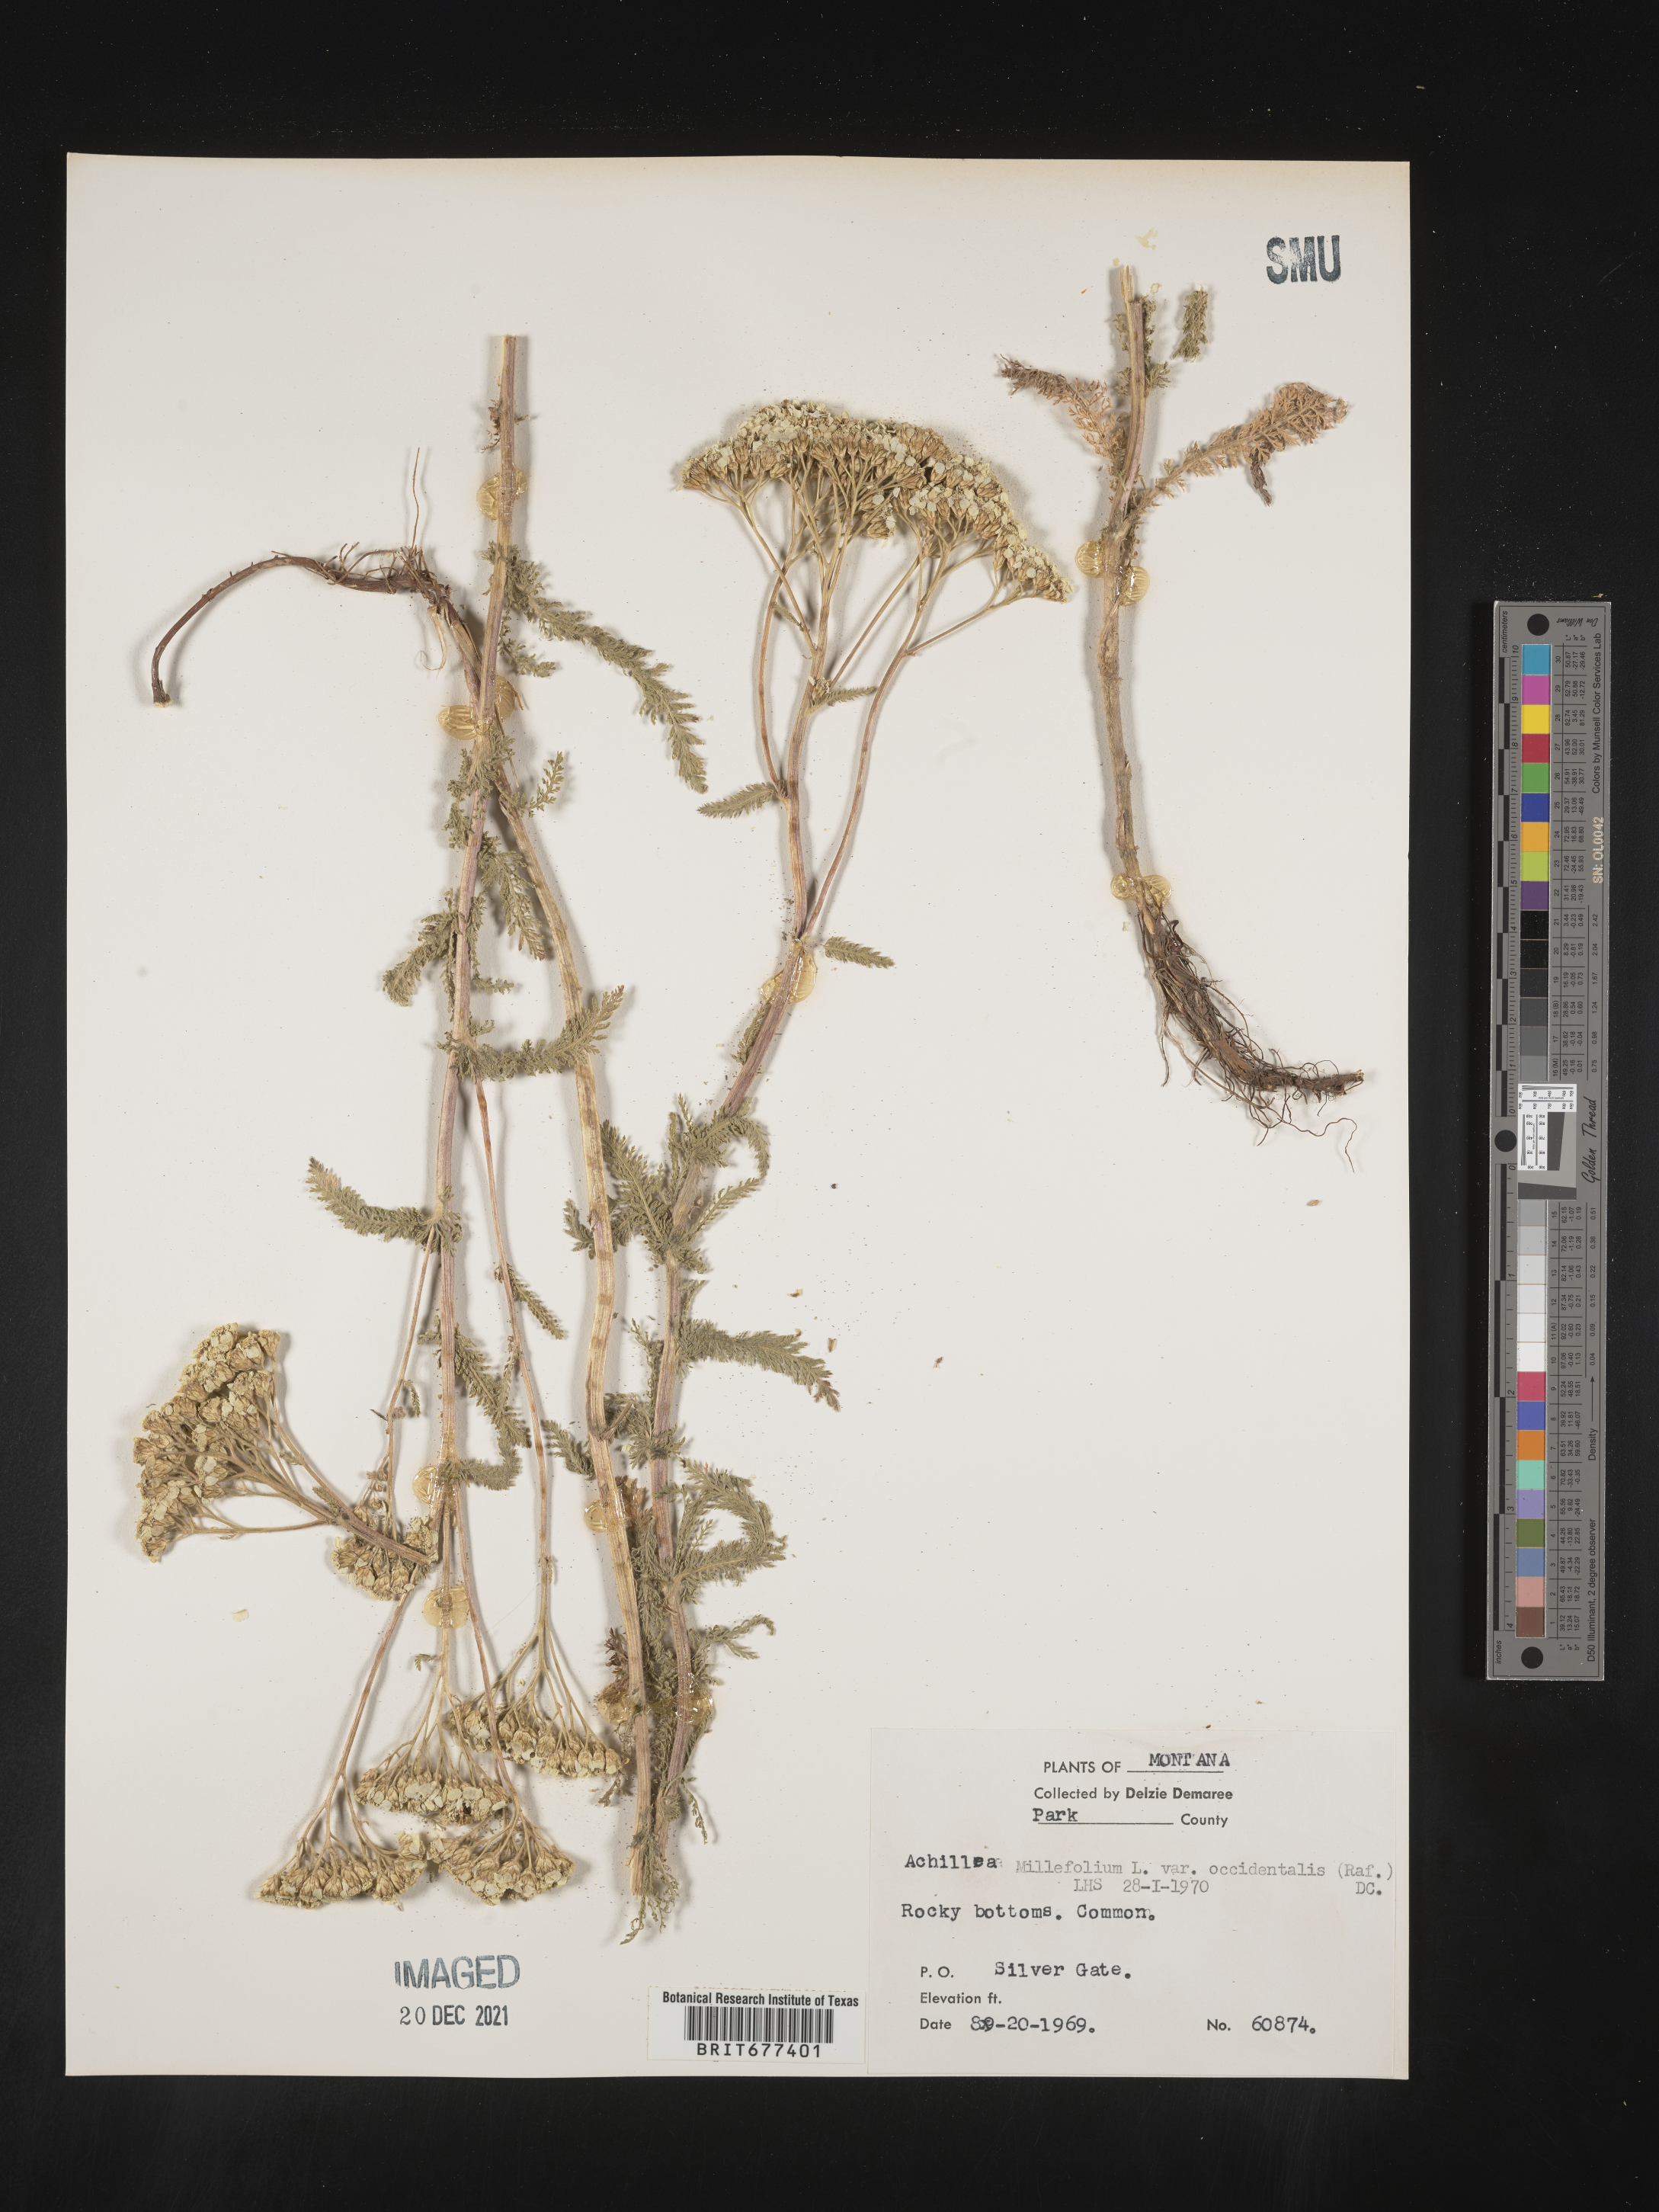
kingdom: Plantae
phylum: Tracheophyta
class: Magnoliopsida
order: Asterales
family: Asteraceae
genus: Achillea
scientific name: Achillea millefolium
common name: Yarrow
